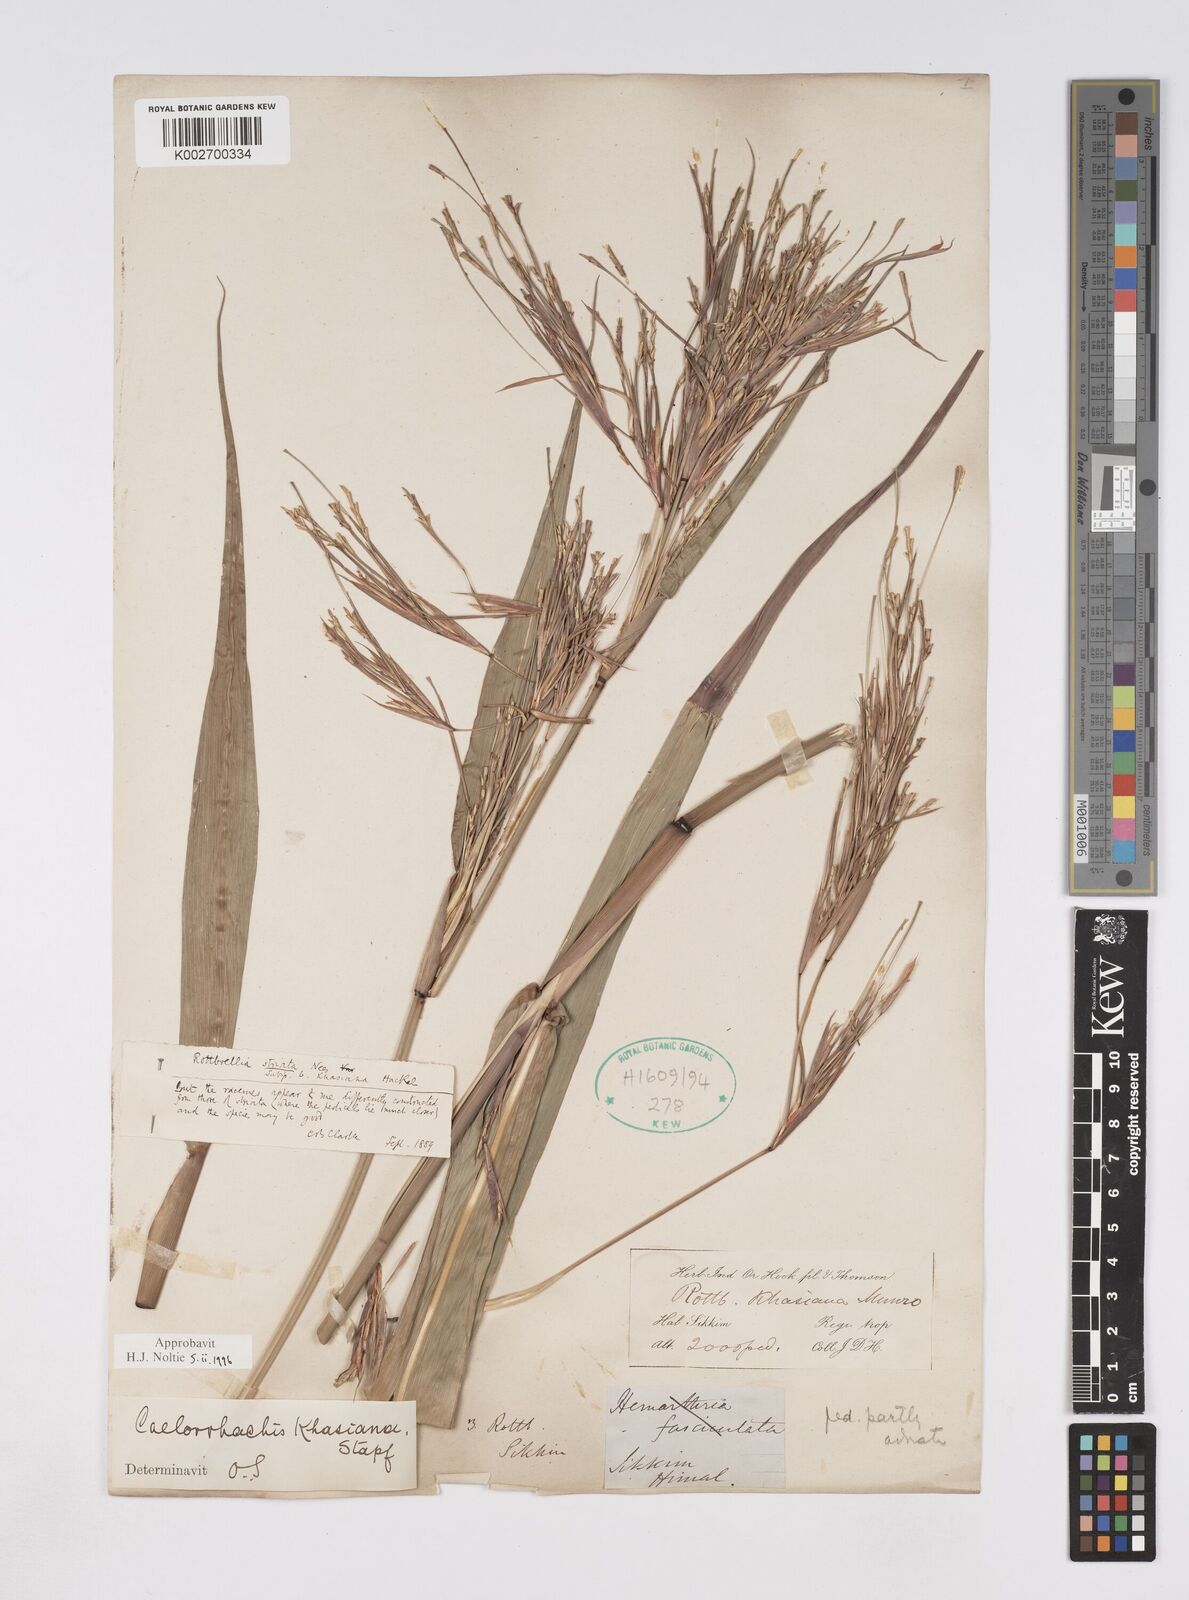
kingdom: Plantae
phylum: Tracheophyta
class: Liliopsida
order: Poales
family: Poaceae
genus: Rottboellia
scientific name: Rottboellia striata
